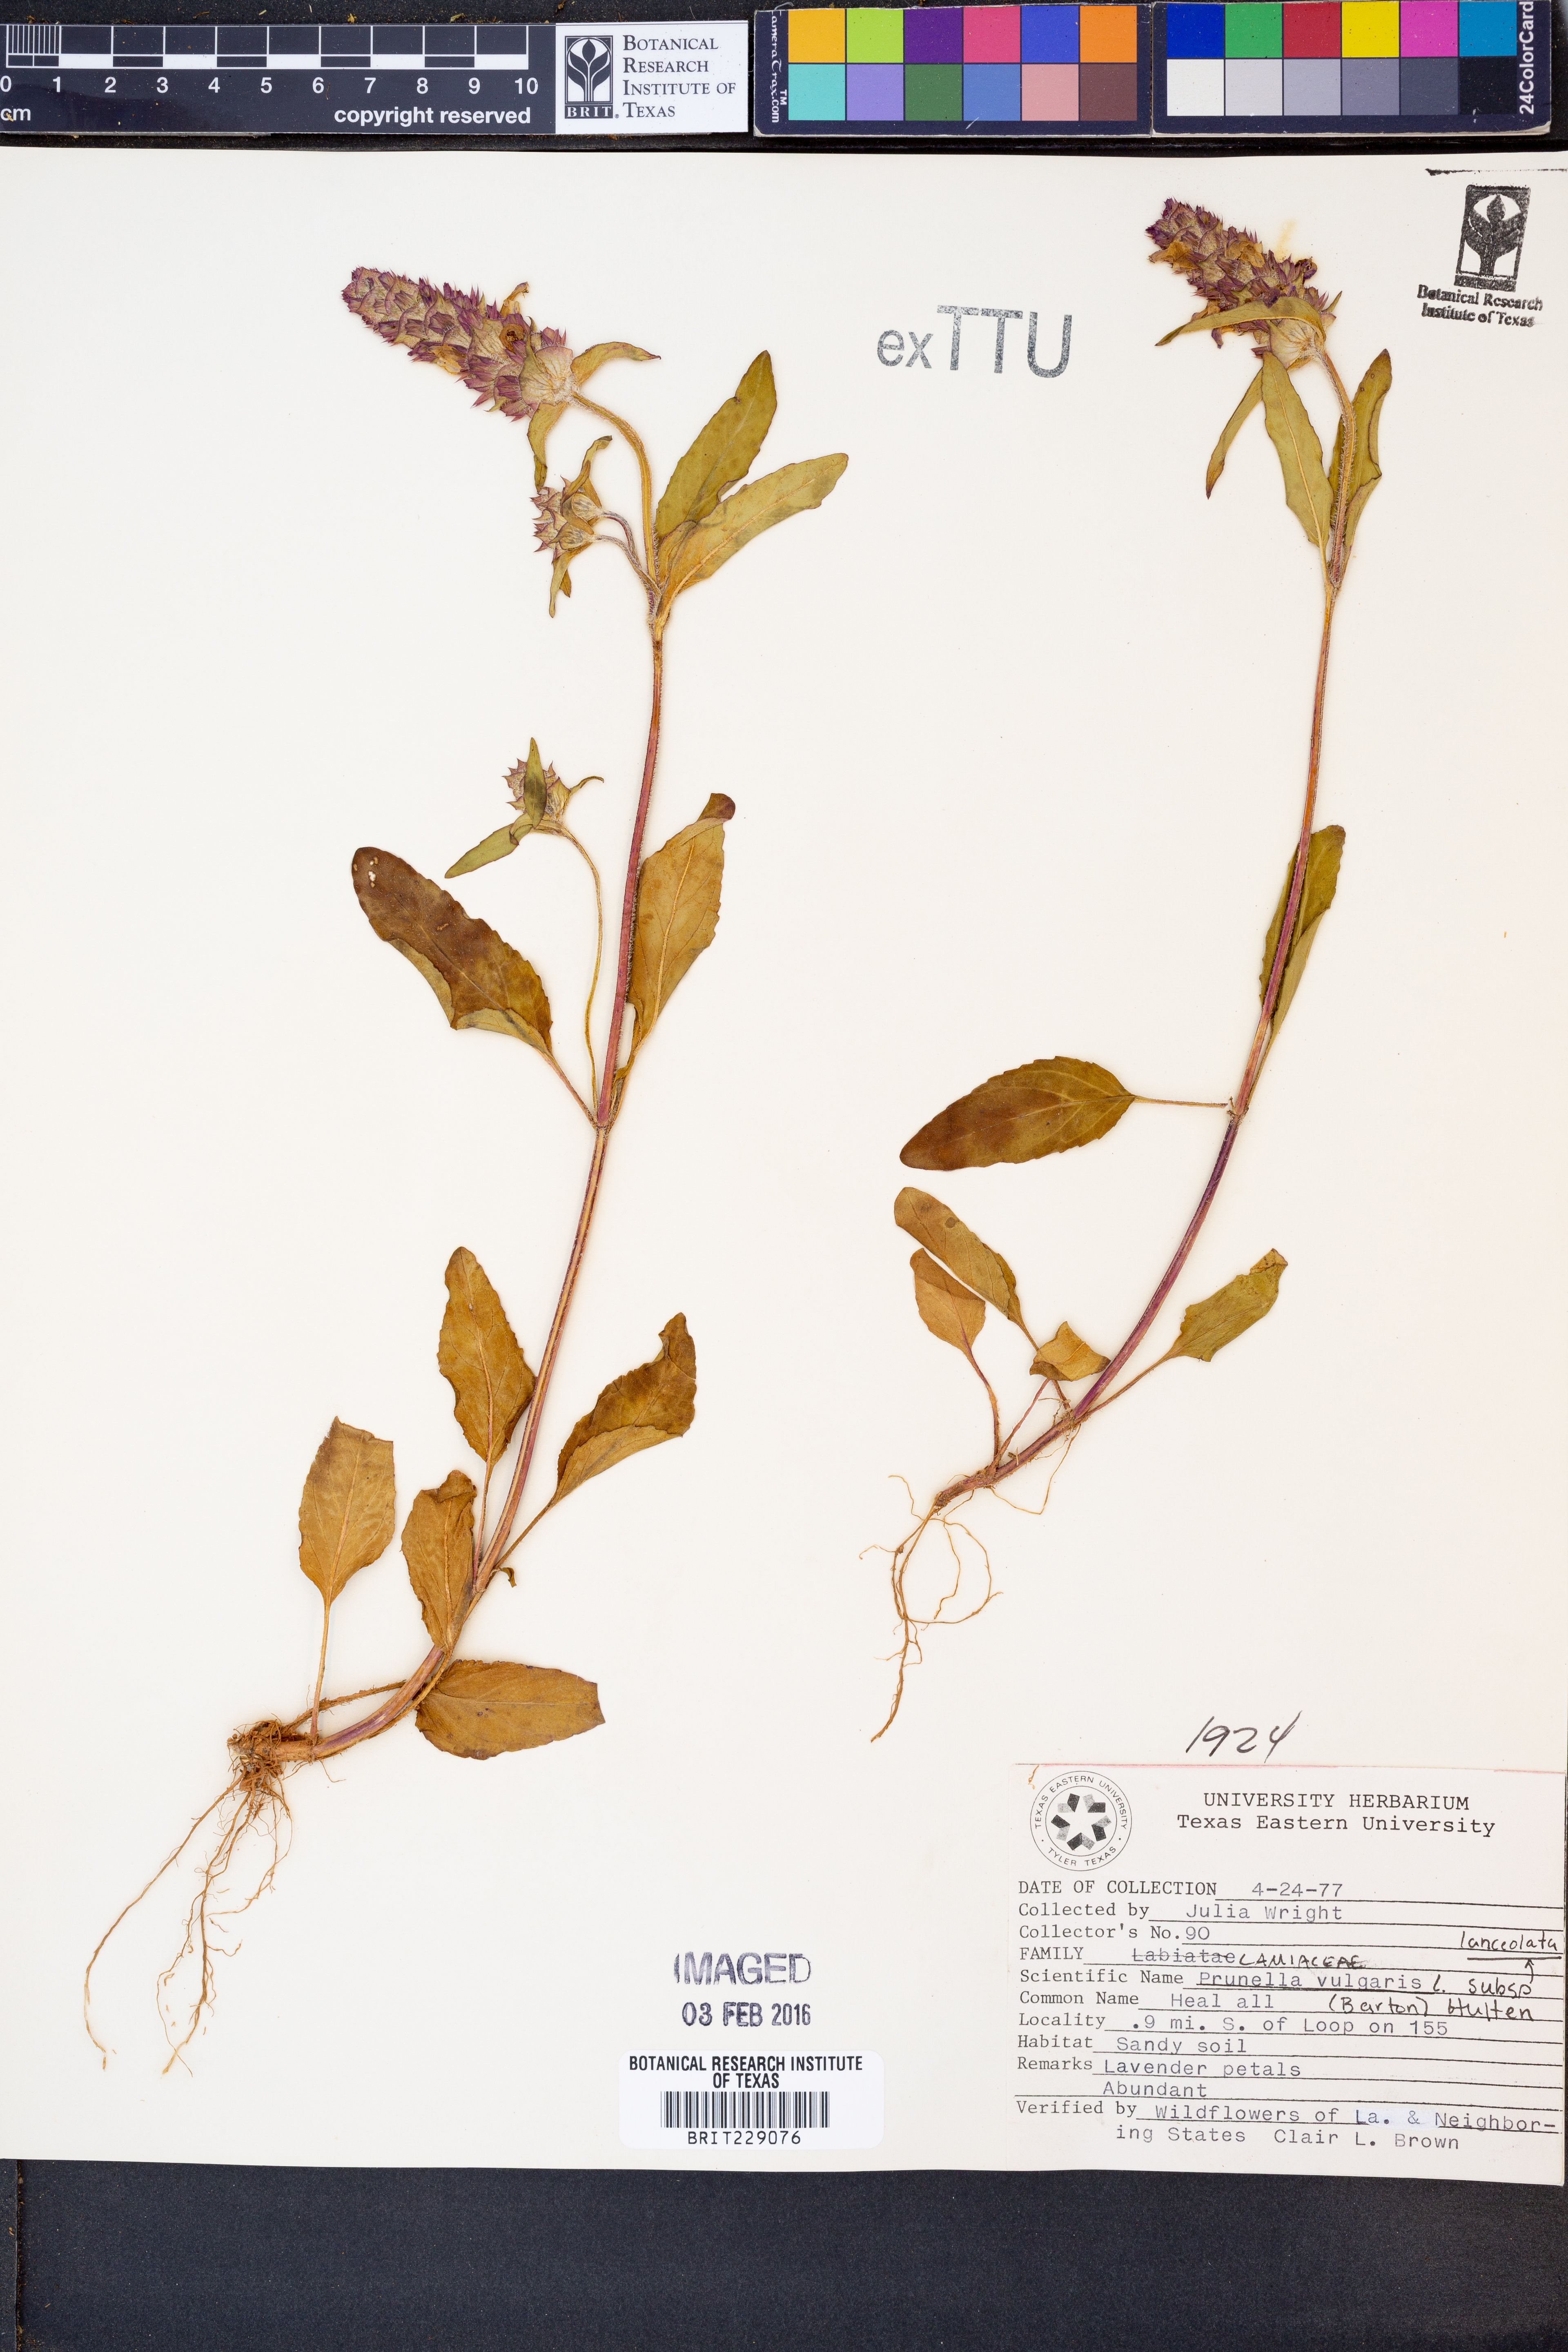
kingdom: Plantae
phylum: Tracheophyta
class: Magnoliopsida
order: Lamiales
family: Lamiaceae
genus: Prunella
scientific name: Prunella vulgaris
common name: Heal-all
